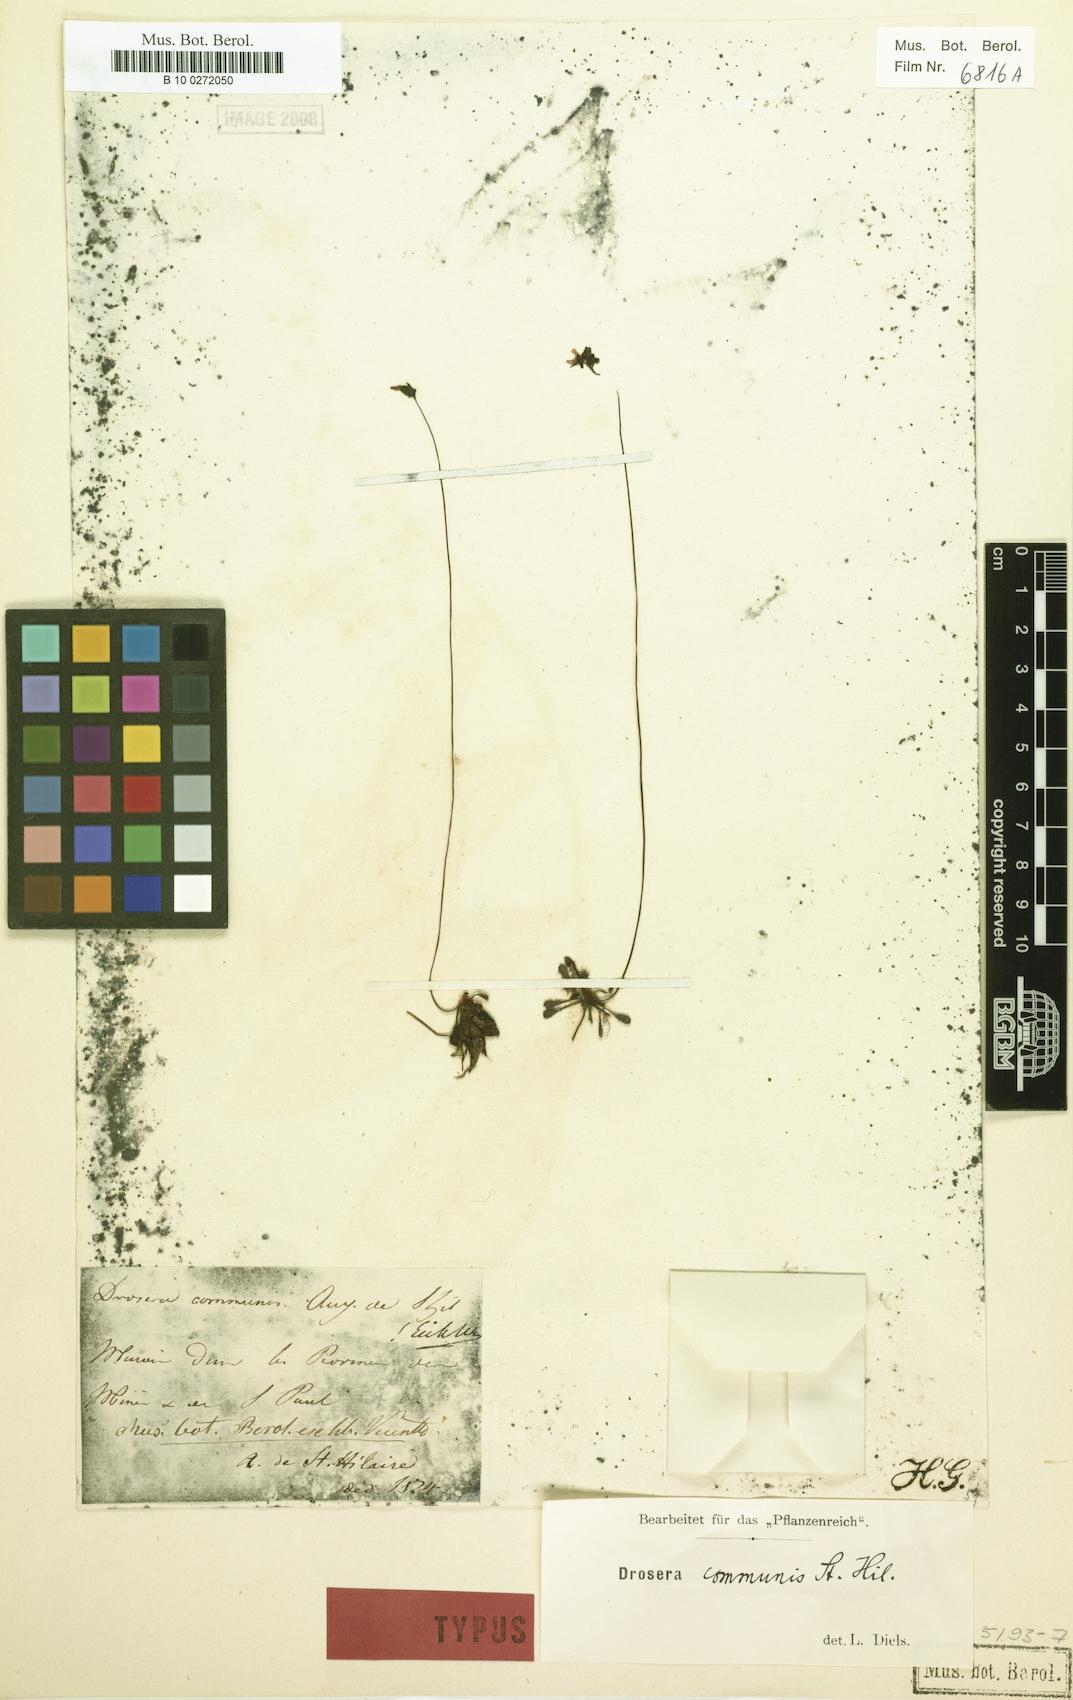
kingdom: Plantae
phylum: Tracheophyta
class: Magnoliopsida
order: Caryophyllales
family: Droseraceae
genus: Drosera
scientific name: Drosera communis
